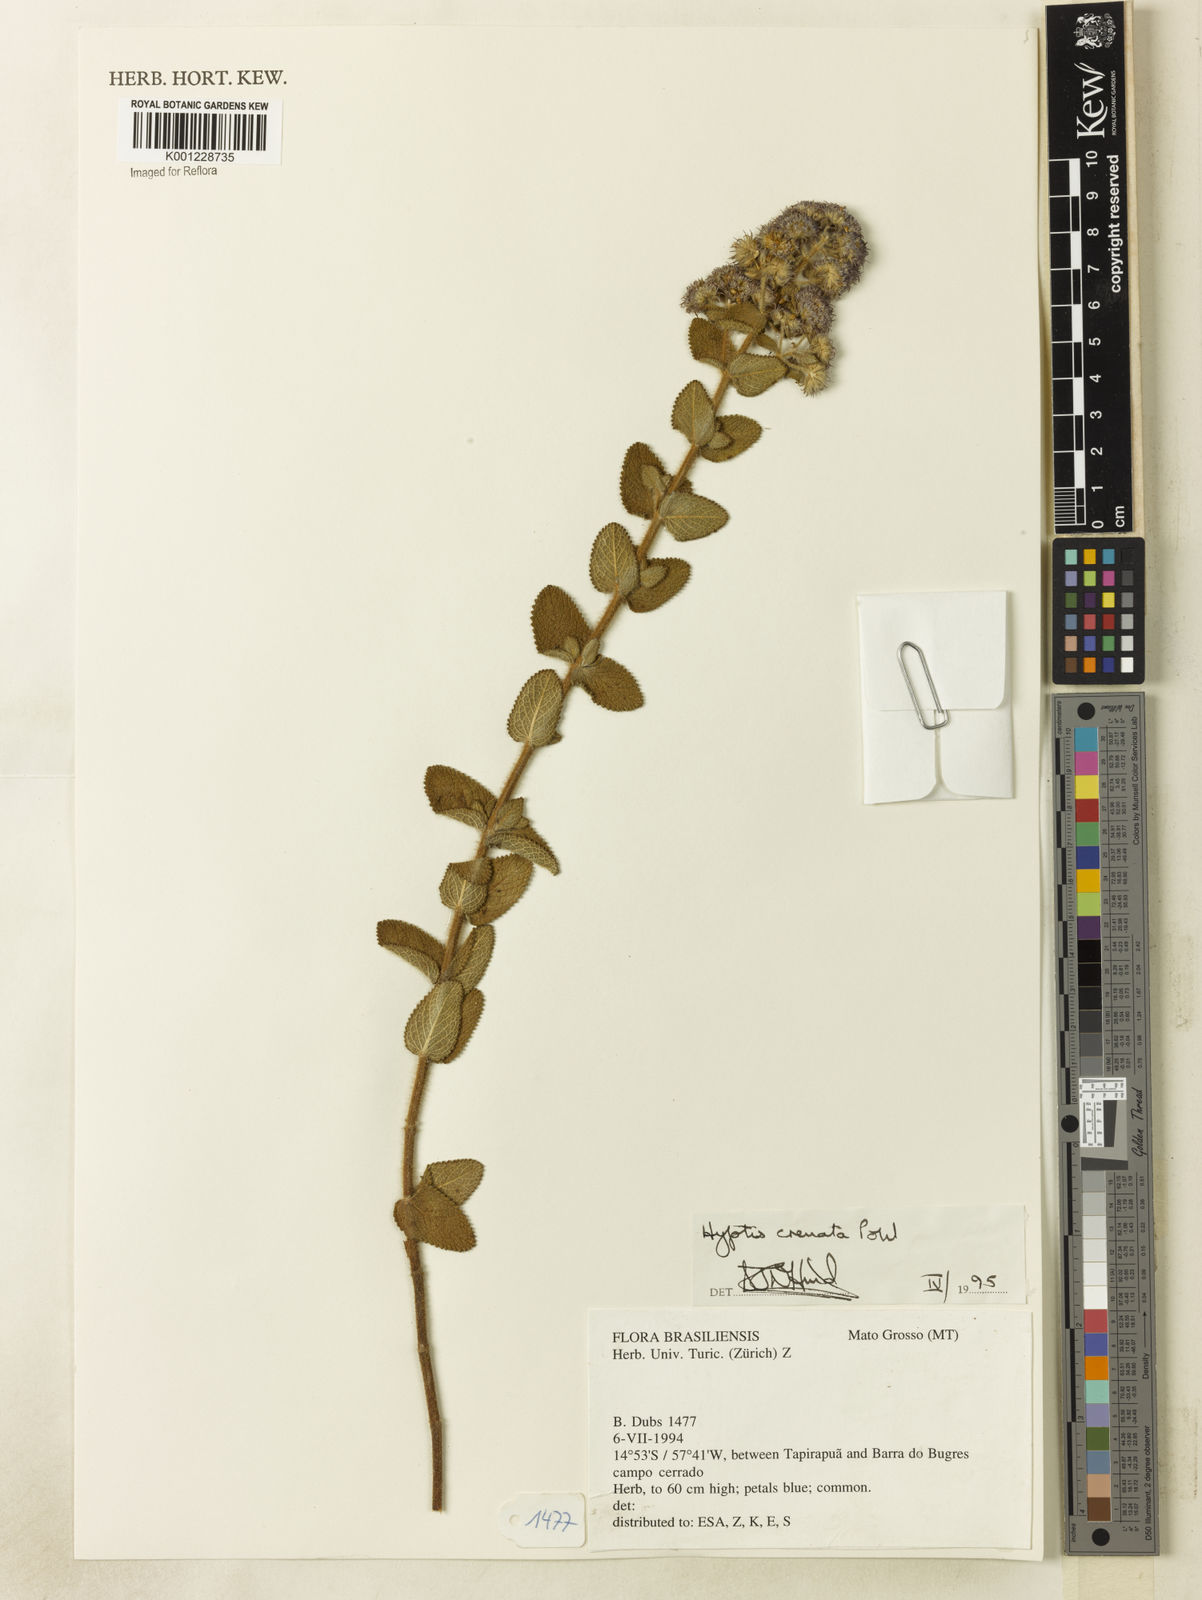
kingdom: Plantae
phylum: Tracheophyta
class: Magnoliopsida
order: Lamiales
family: Lamiaceae
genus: Hyptis
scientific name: Hyptis crenata
